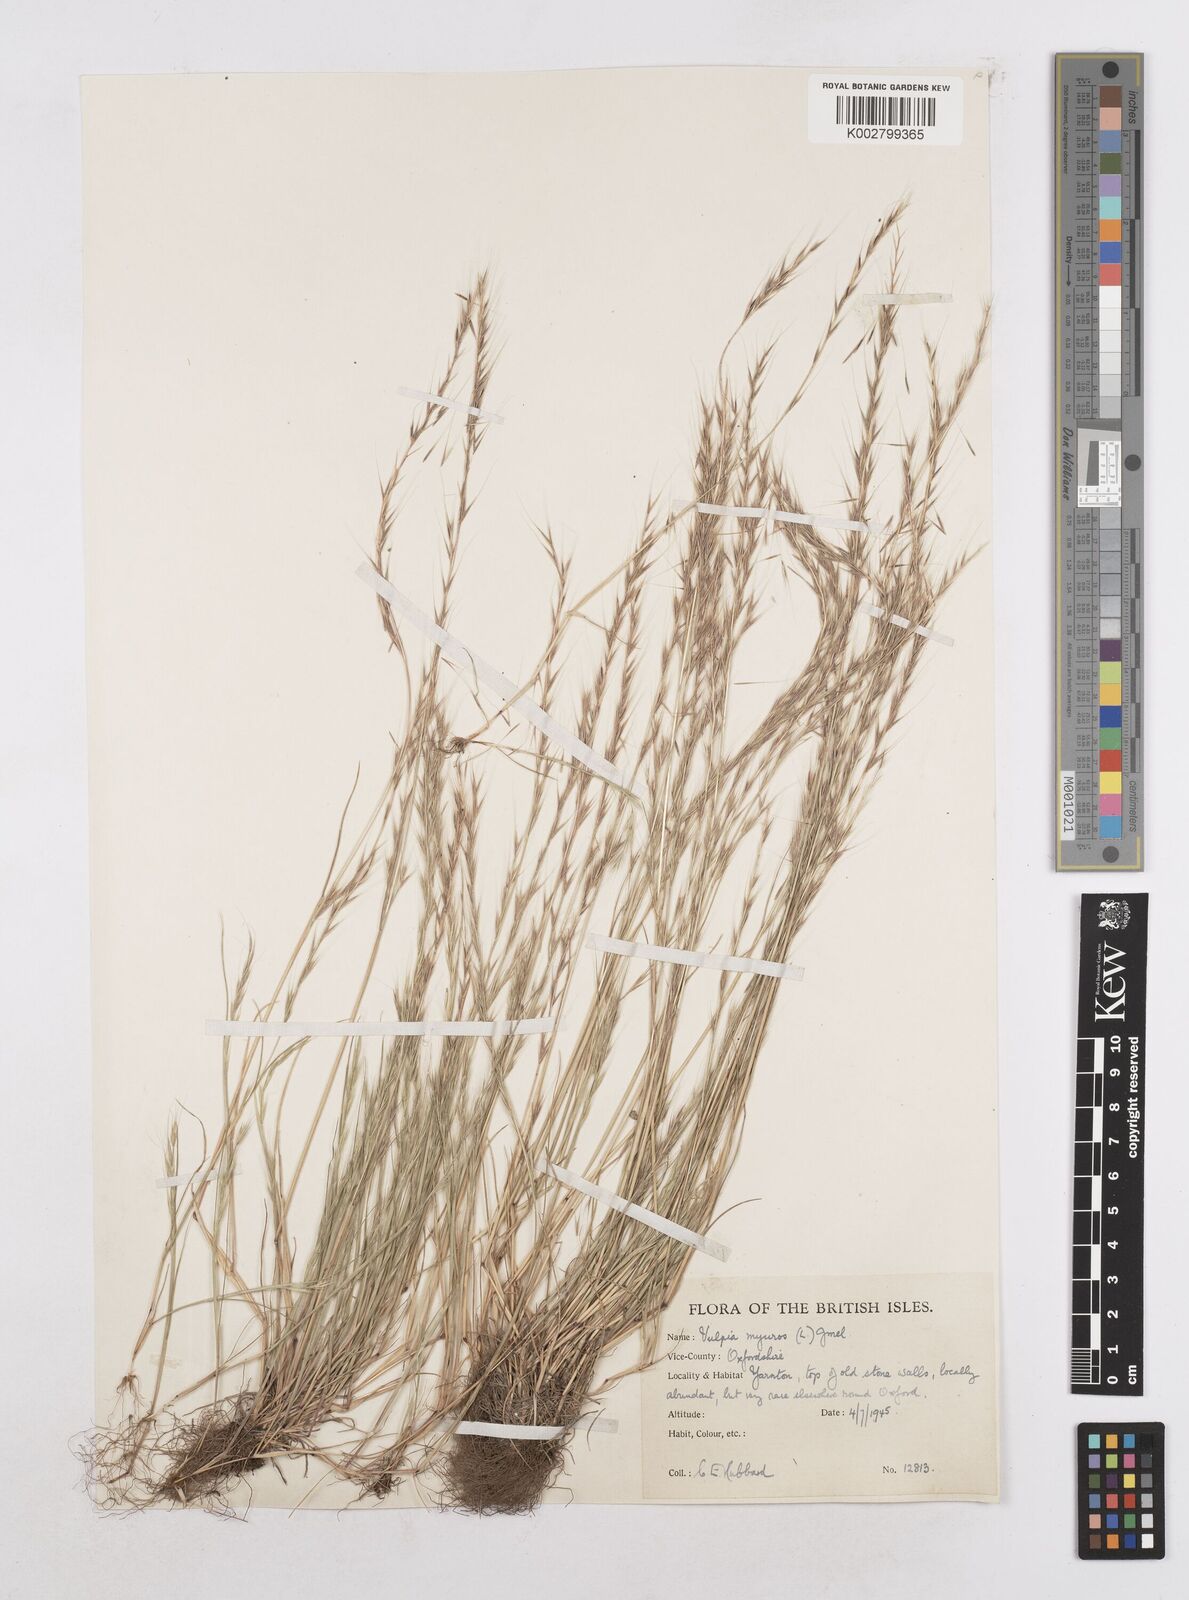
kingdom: Plantae
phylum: Tracheophyta
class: Liliopsida
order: Poales
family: Poaceae
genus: Festuca
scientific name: Festuca myuros
